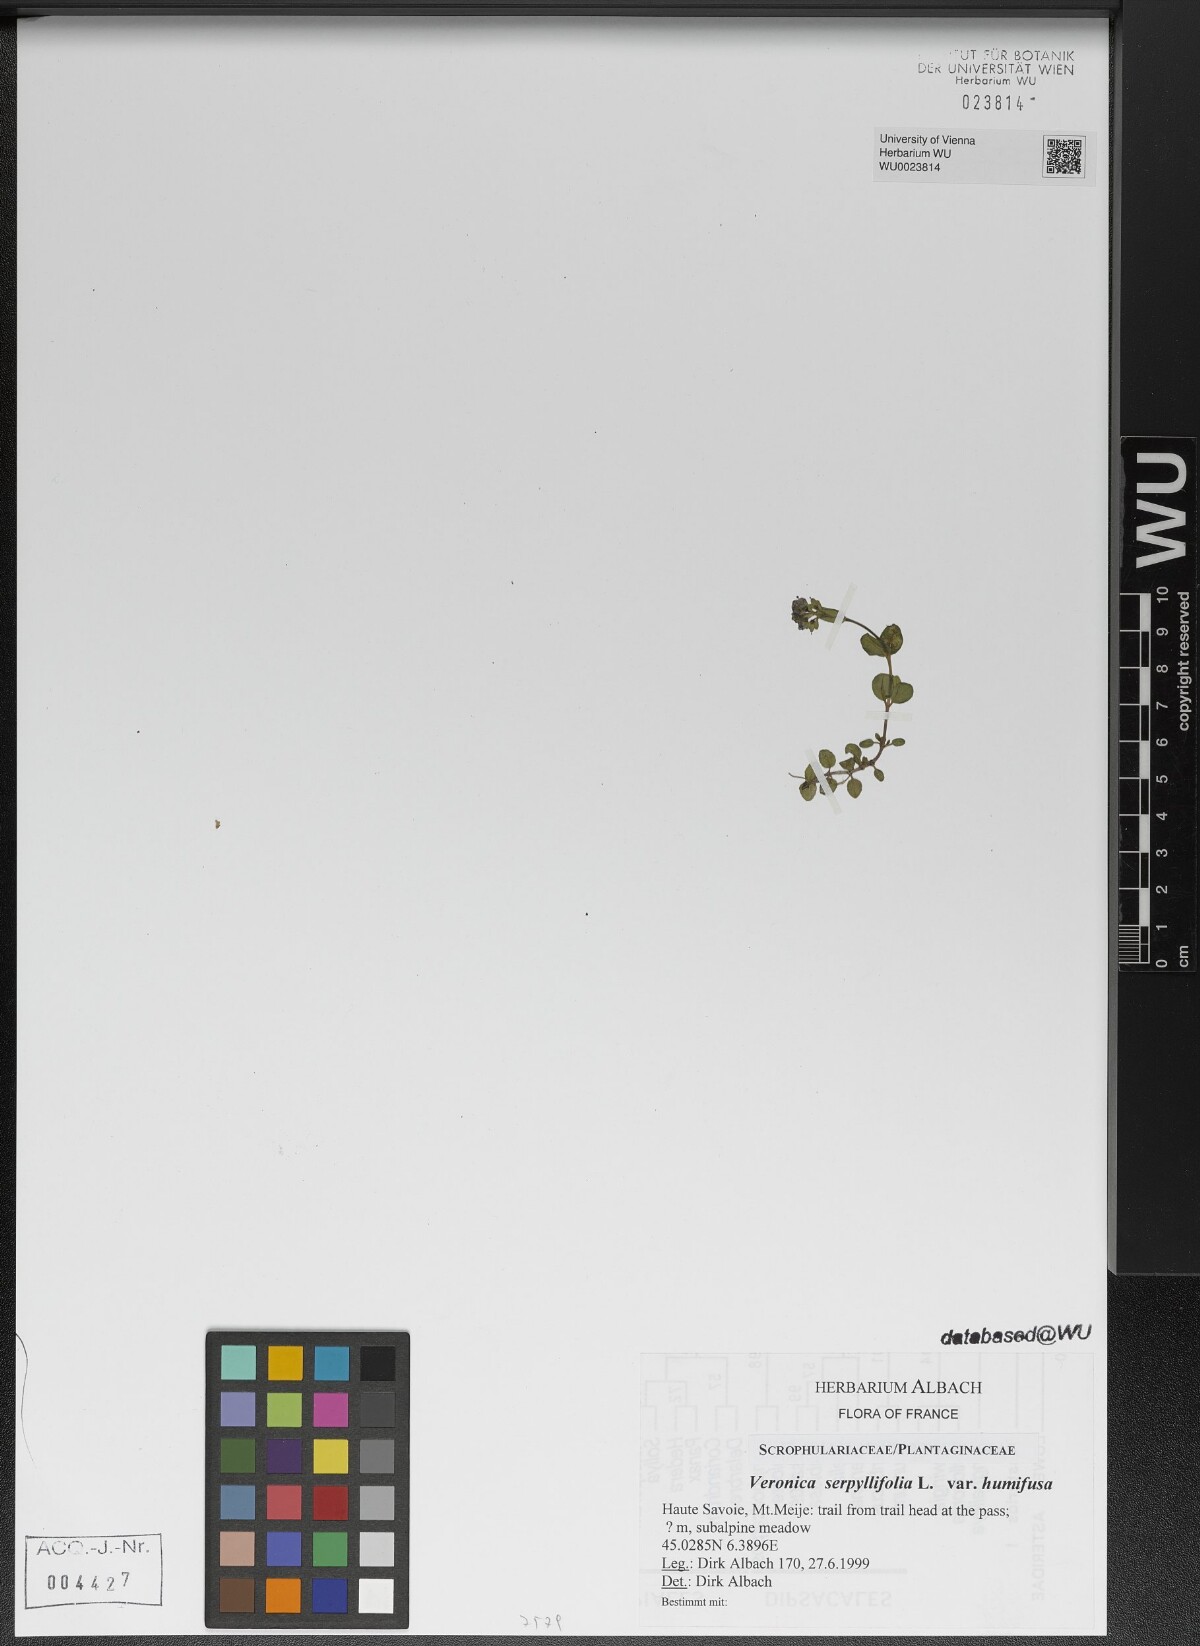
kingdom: Plantae
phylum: Tracheophyta
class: Magnoliopsida
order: Lamiales
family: Plantaginaceae
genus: Veronica
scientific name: Veronica serpyllifolia
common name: Thyme-leaved speedwell
